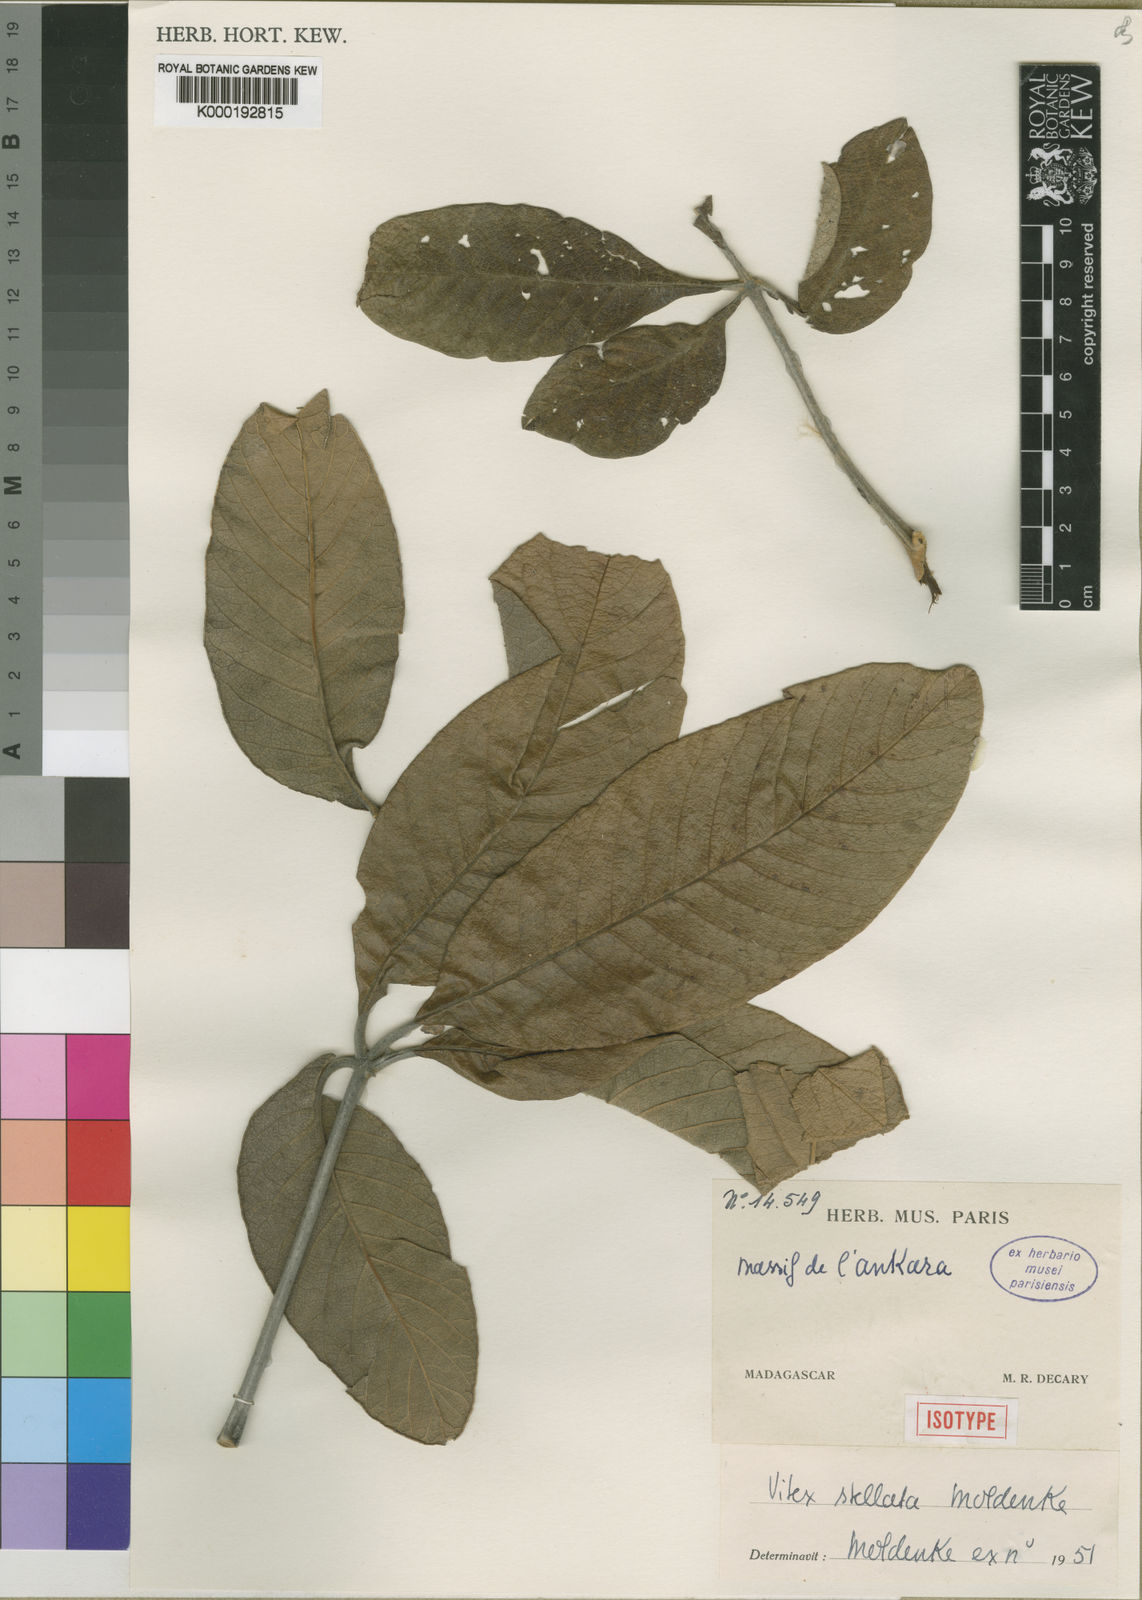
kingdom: Plantae
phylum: Tracheophyta
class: Magnoliopsida
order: Lamiales
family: Lamiaceae
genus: Vitex
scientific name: Vitex stellata
